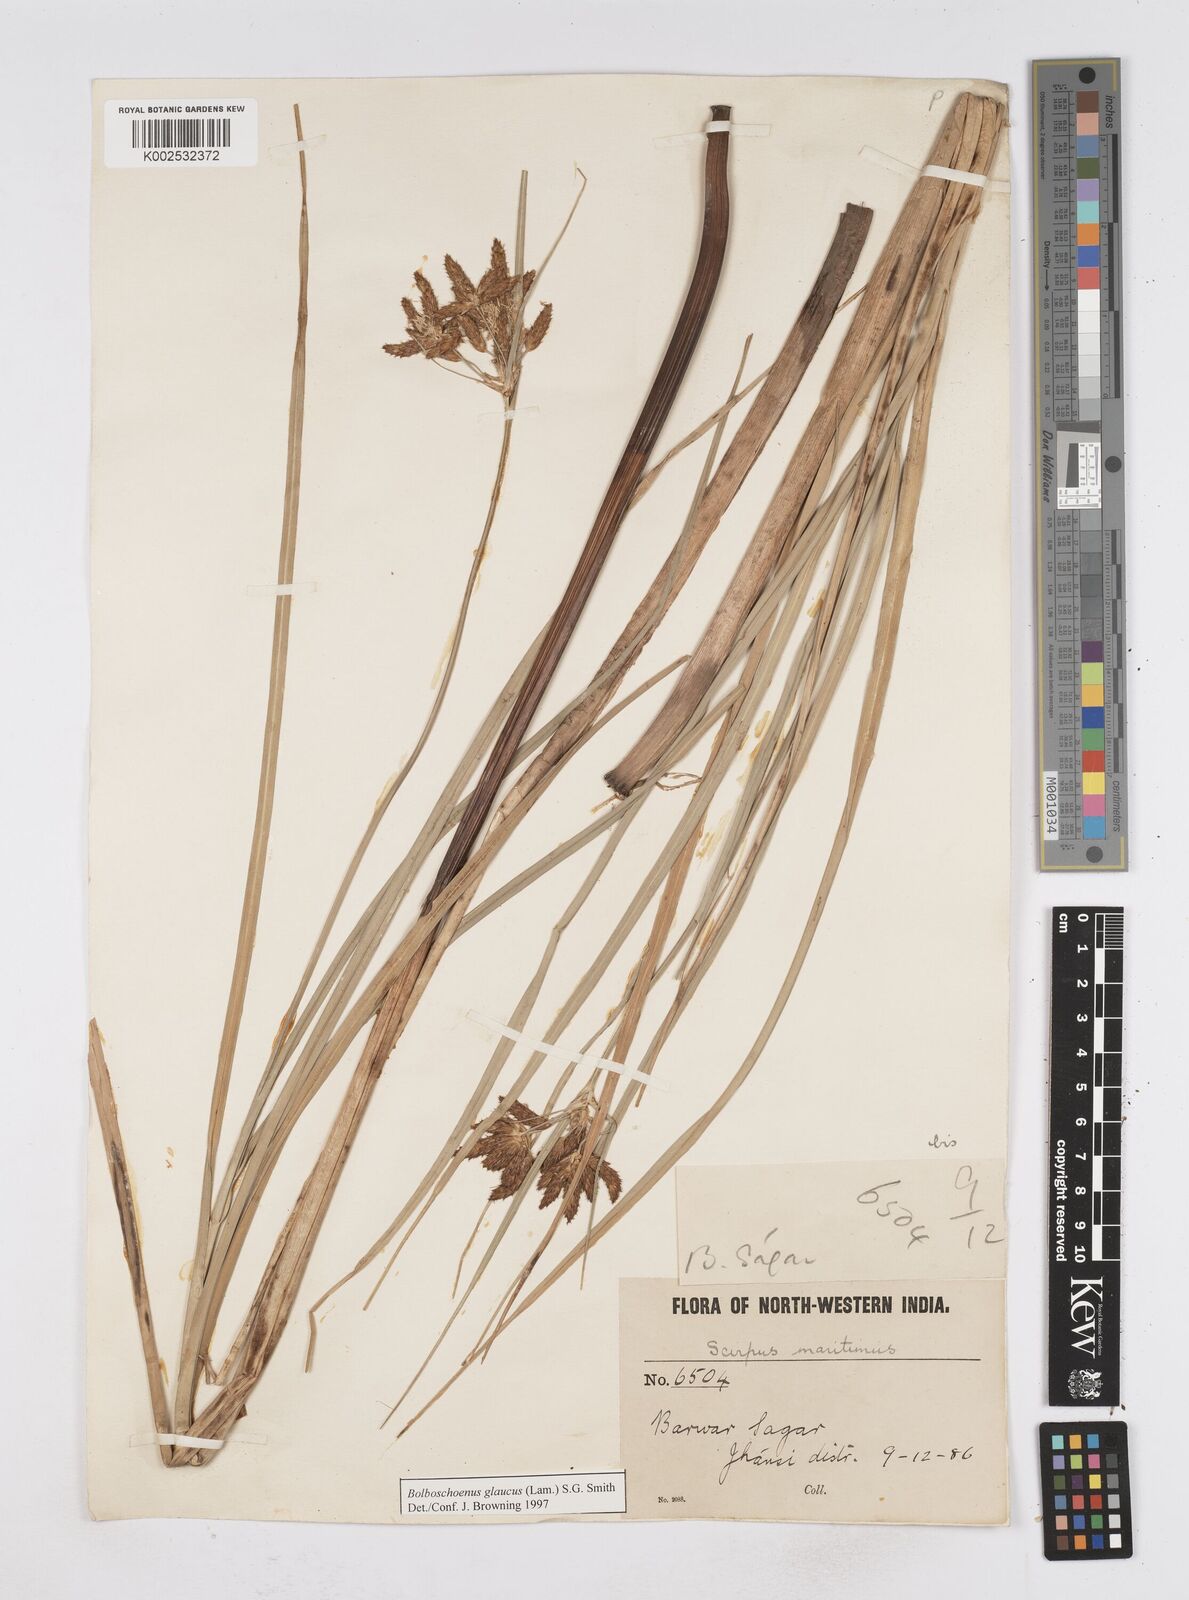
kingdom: Plantae
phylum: Tracheophyta
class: Liliopsida
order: Poales
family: Cyperaceae
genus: Bolboschoenus
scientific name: Bolboschoenus maritimus
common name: Sea club-rush
